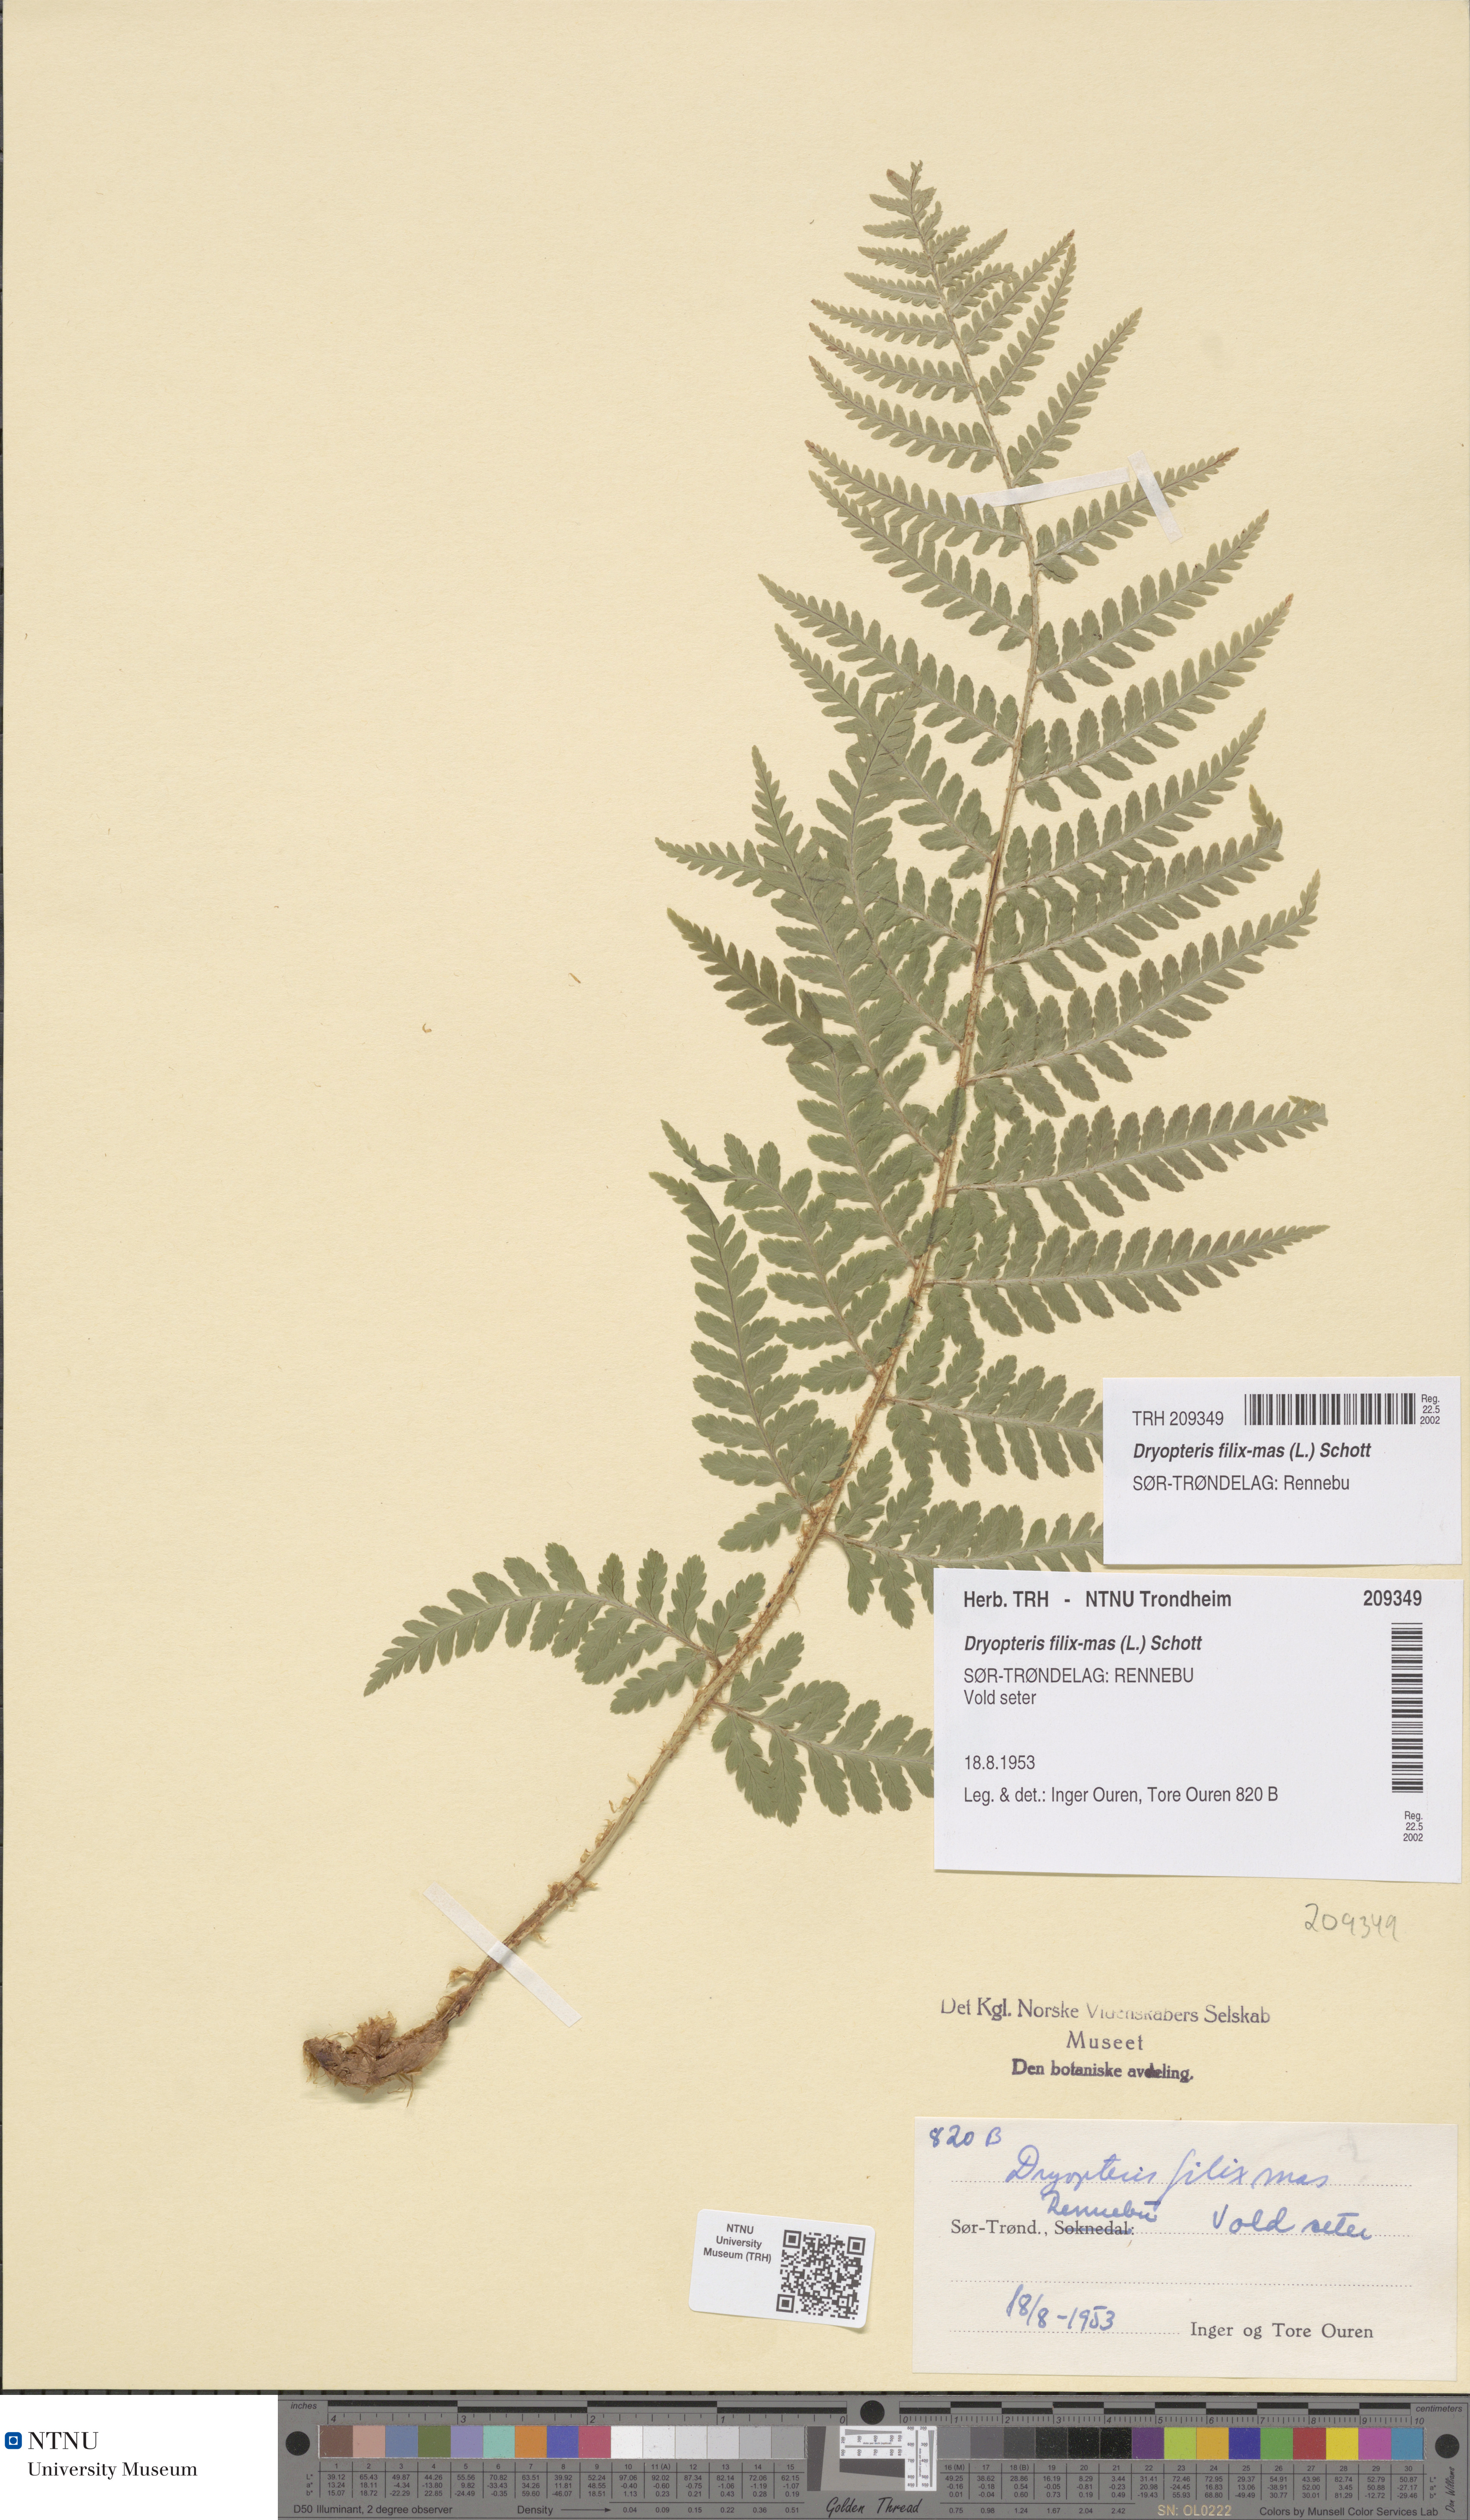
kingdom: Plantae
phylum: Tracheophyta
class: Polypodiopsida
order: Polypodiales
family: Dryopteridaceae
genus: Dryopteris
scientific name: Dryopteris filix-mas
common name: Male fern
